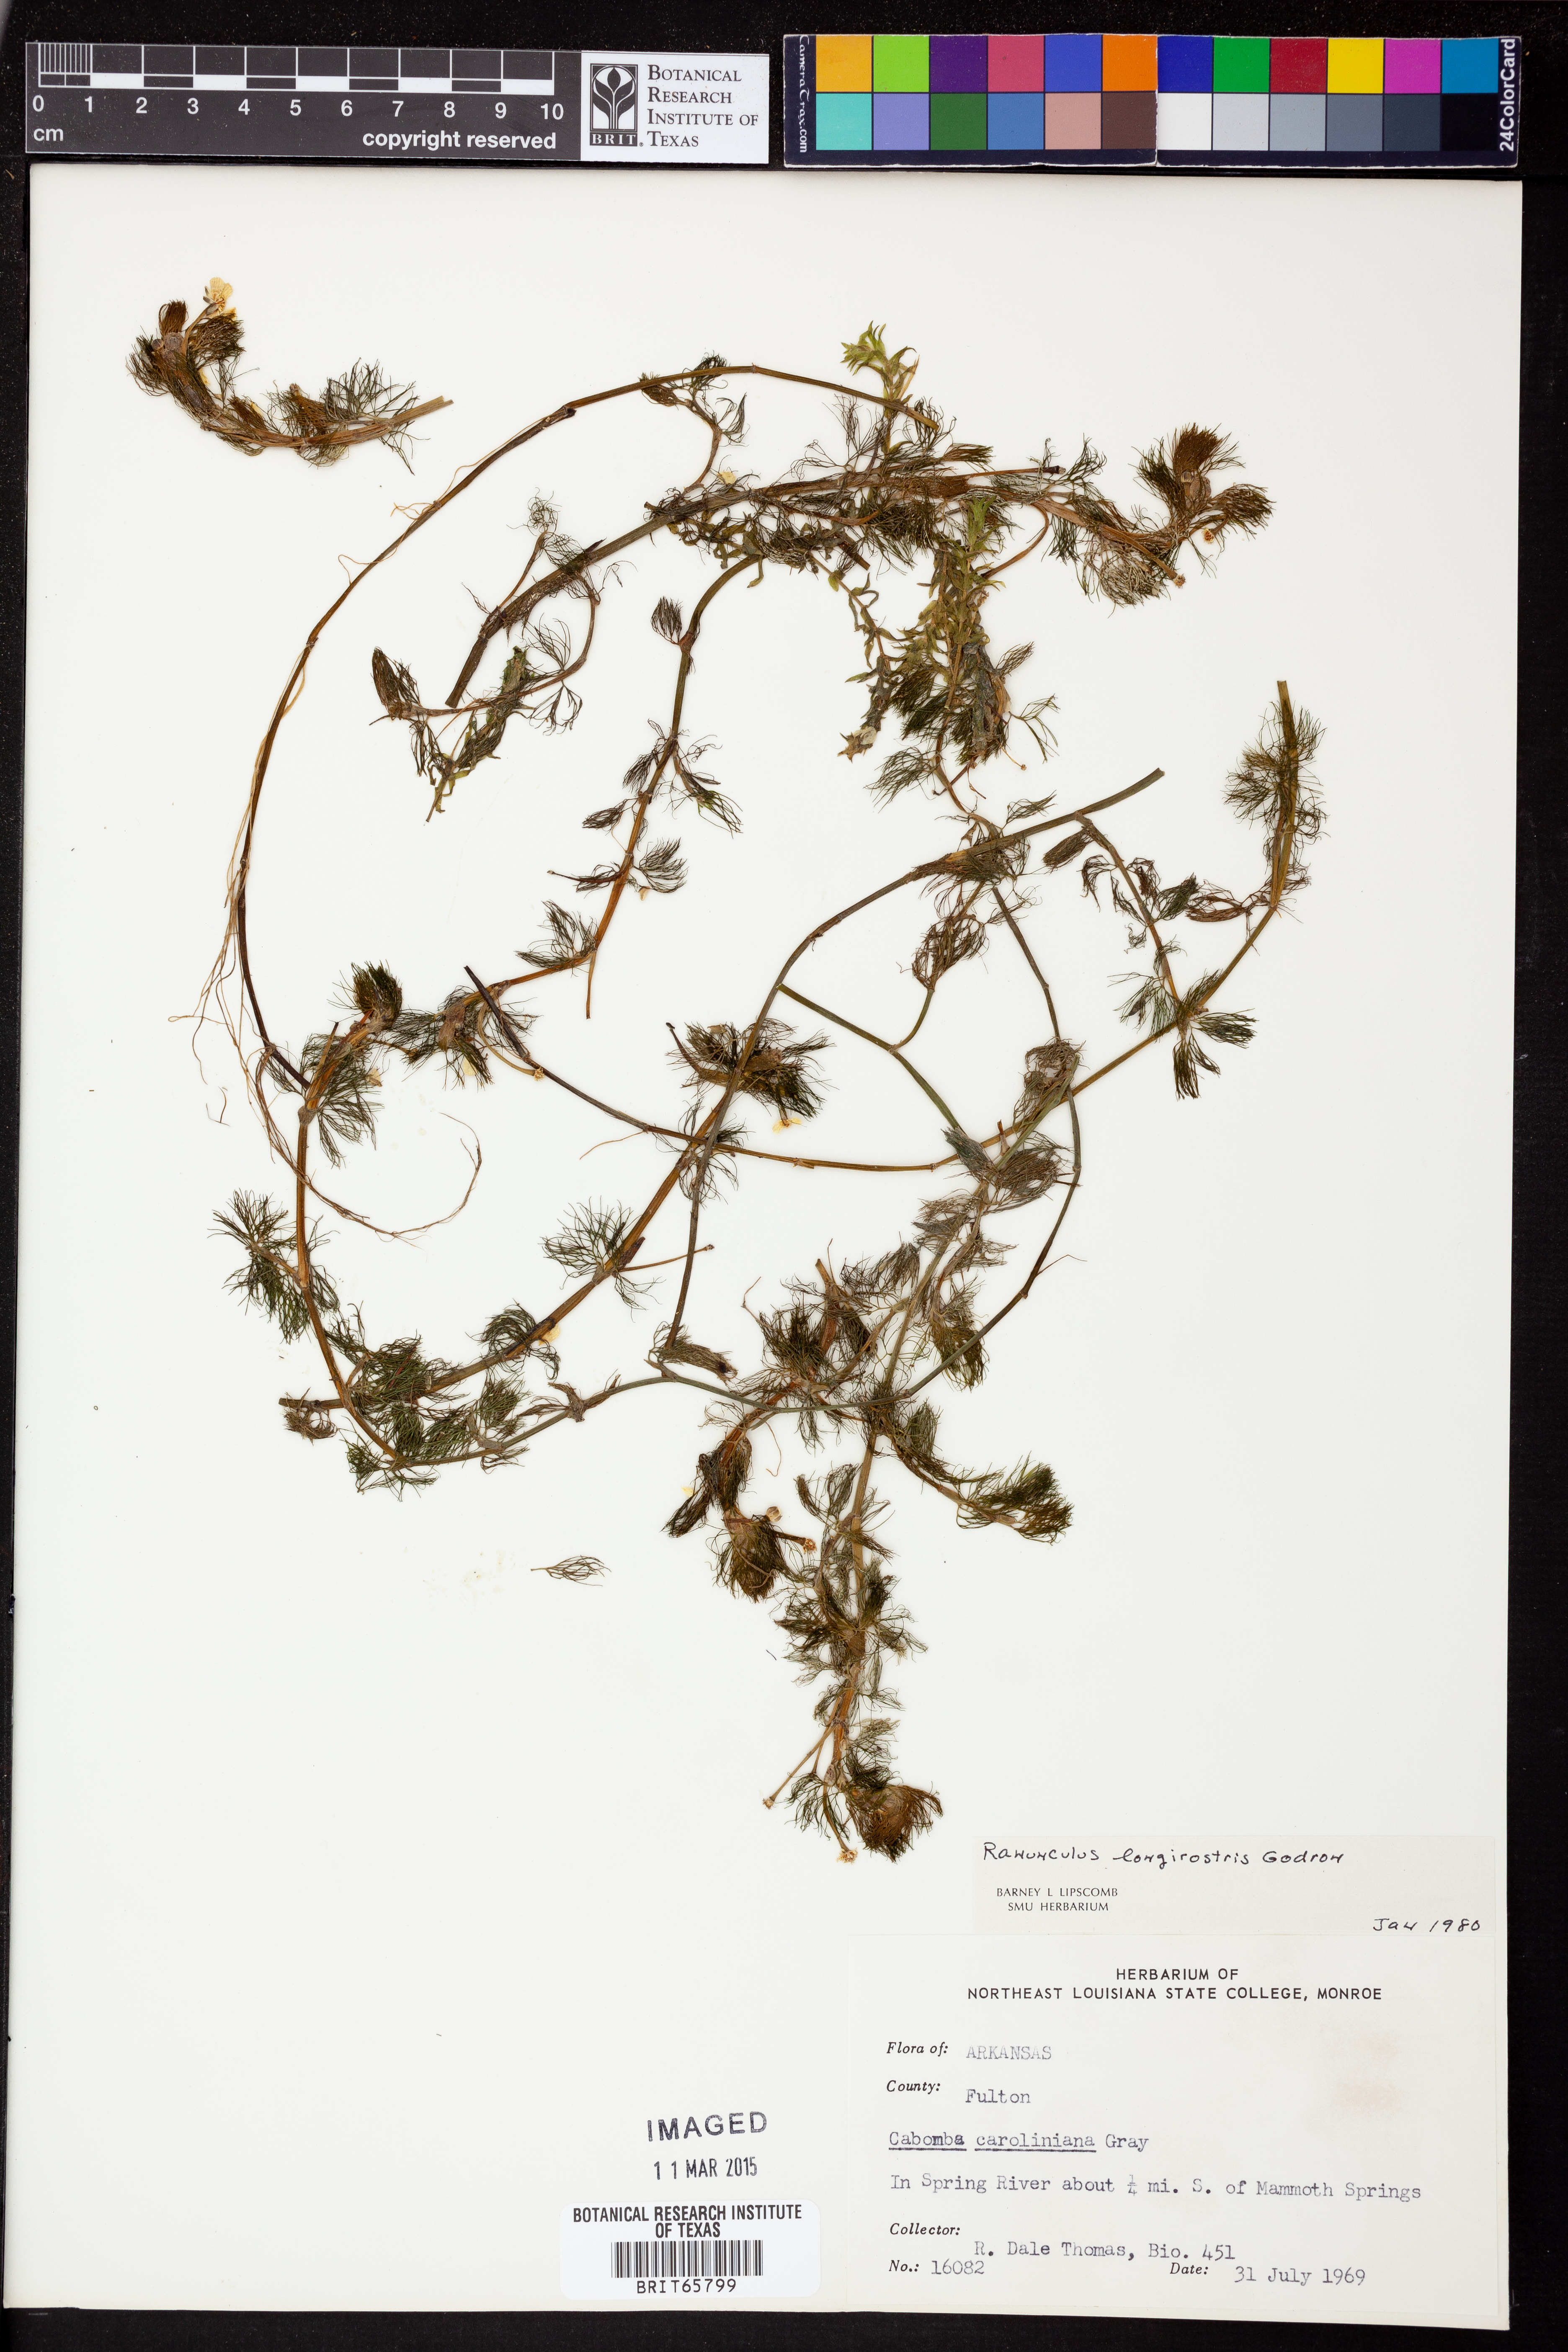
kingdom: Plantae
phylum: Tracheophyta
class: Magnoliopsida
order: Ranunculales
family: Ranunculaceae
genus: Ranunculus
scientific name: Ranunculus longirostris
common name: Curly white water-crowfoot
